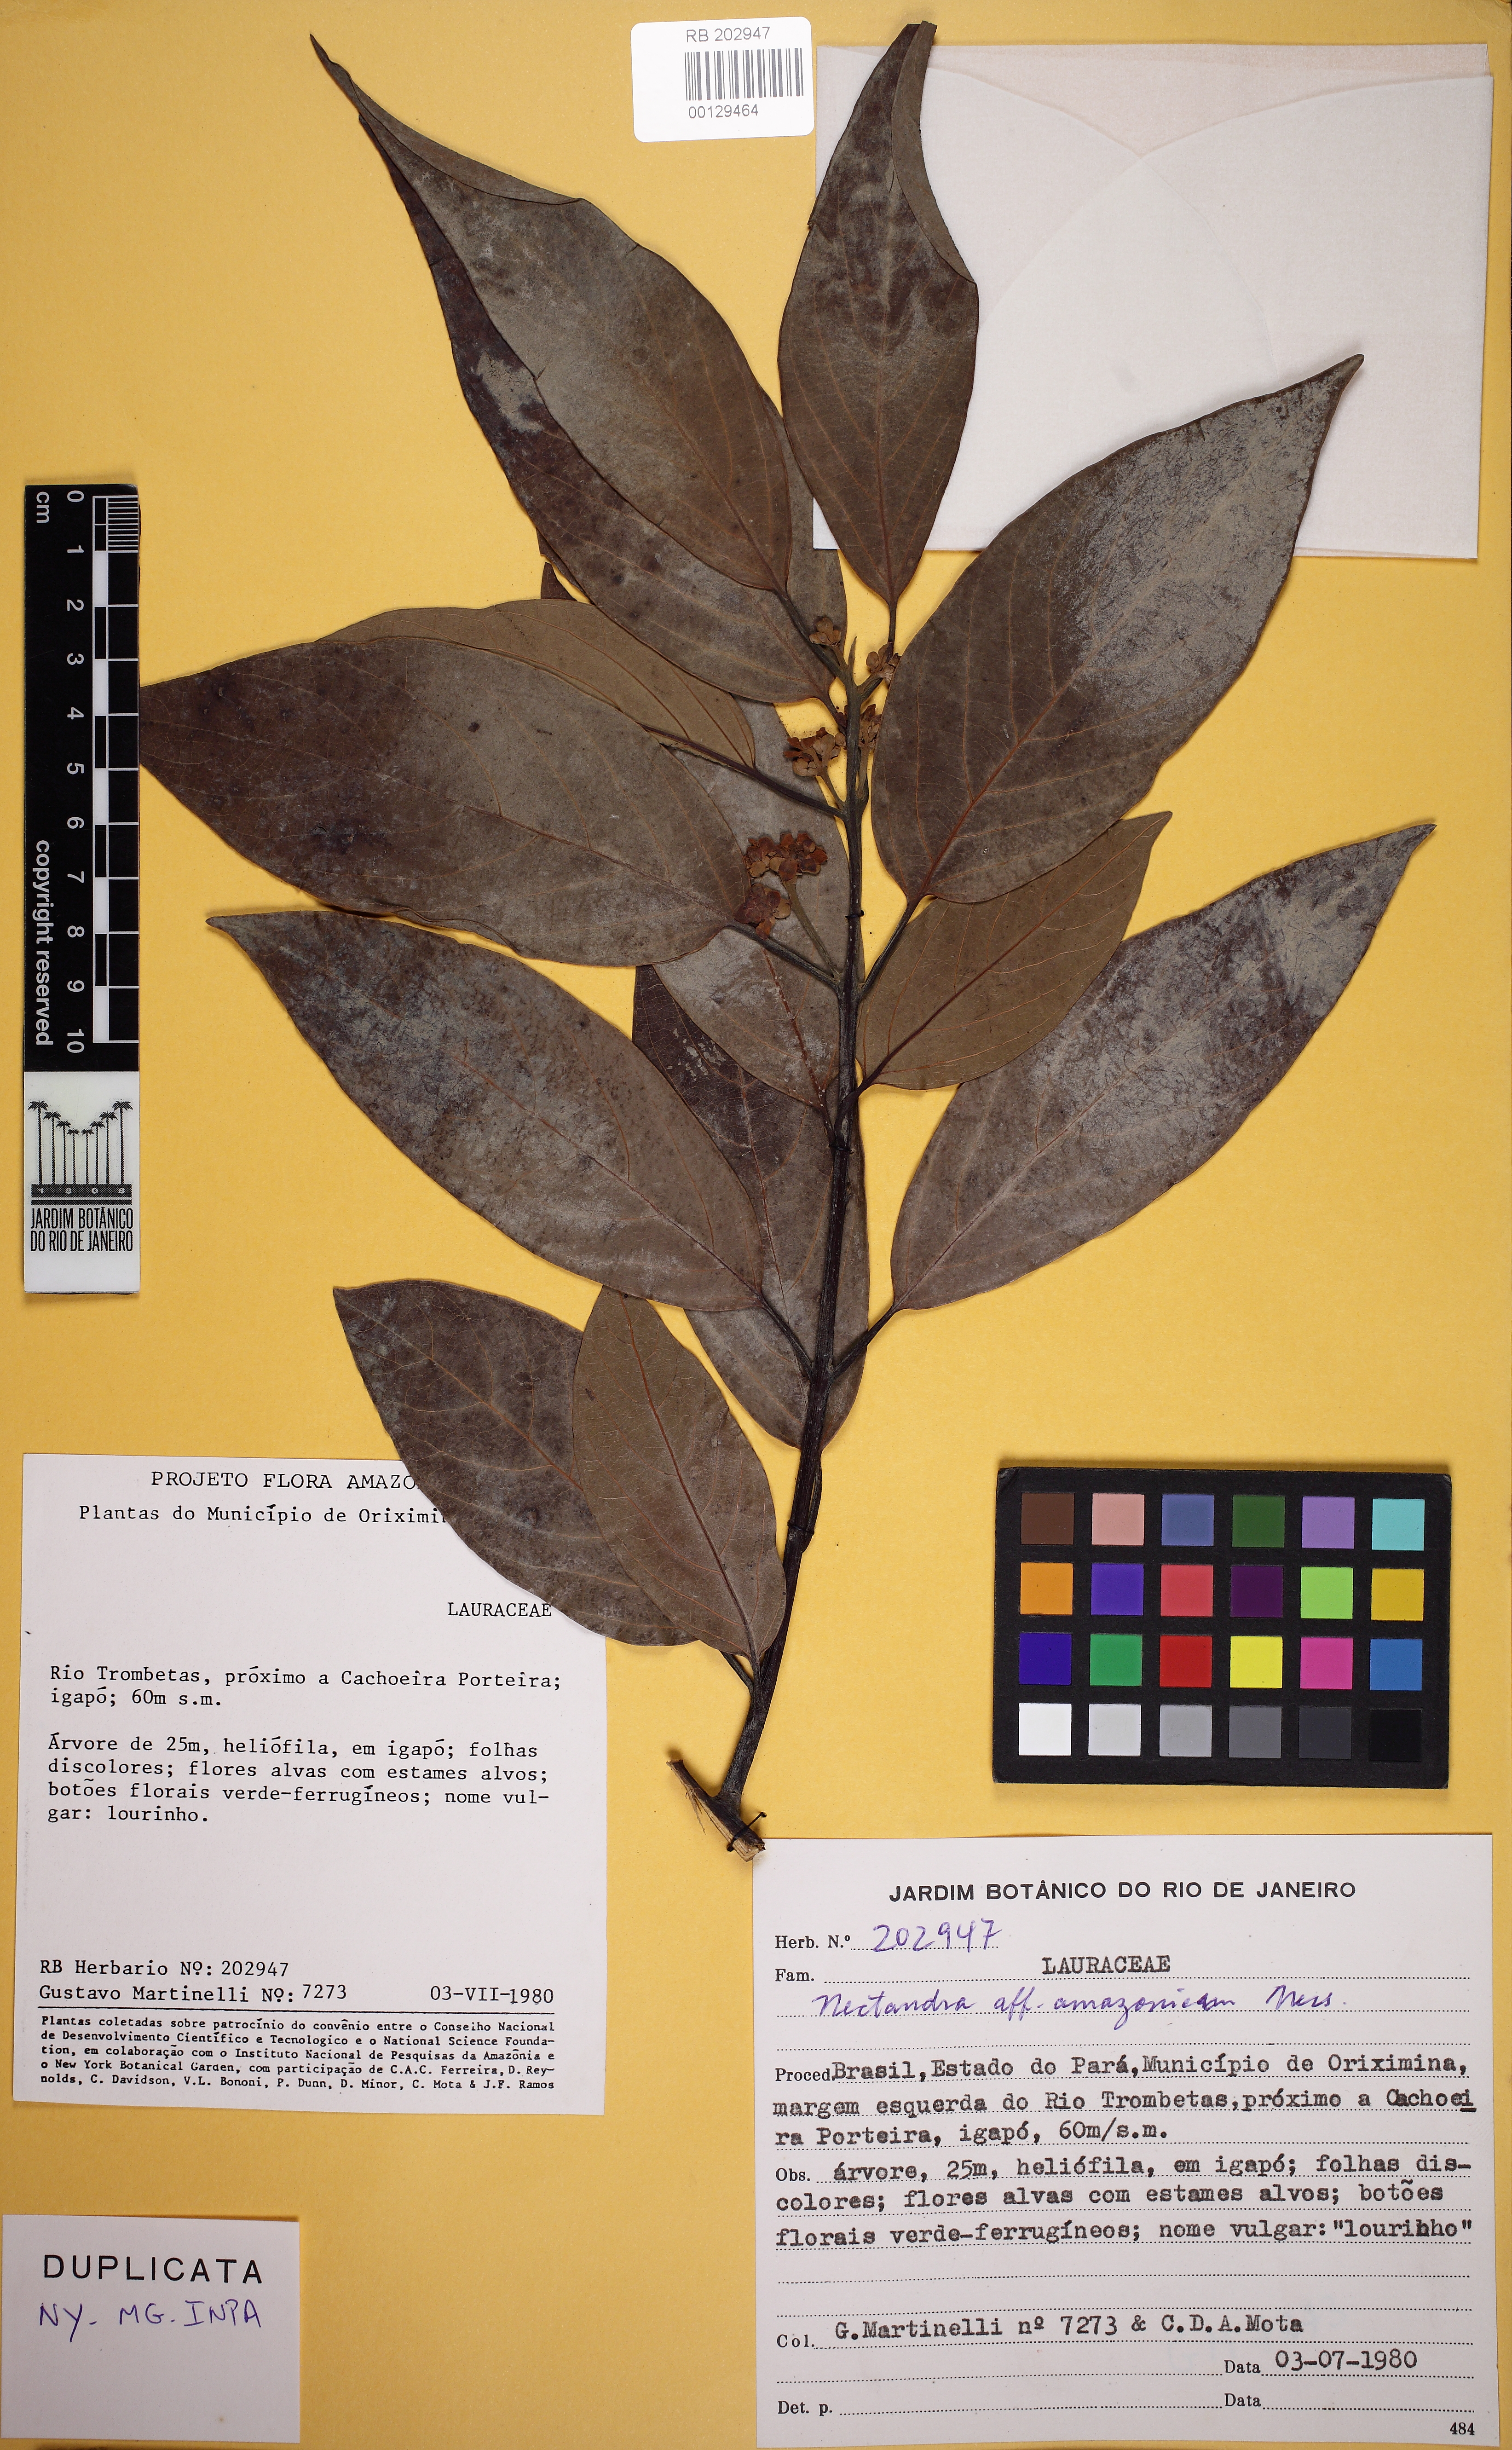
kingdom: Plantae
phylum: Tracheophyta
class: Magnoliopsida
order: Laurales
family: Lauraceae
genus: Nectandra
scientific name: Nectandra amazonicum
